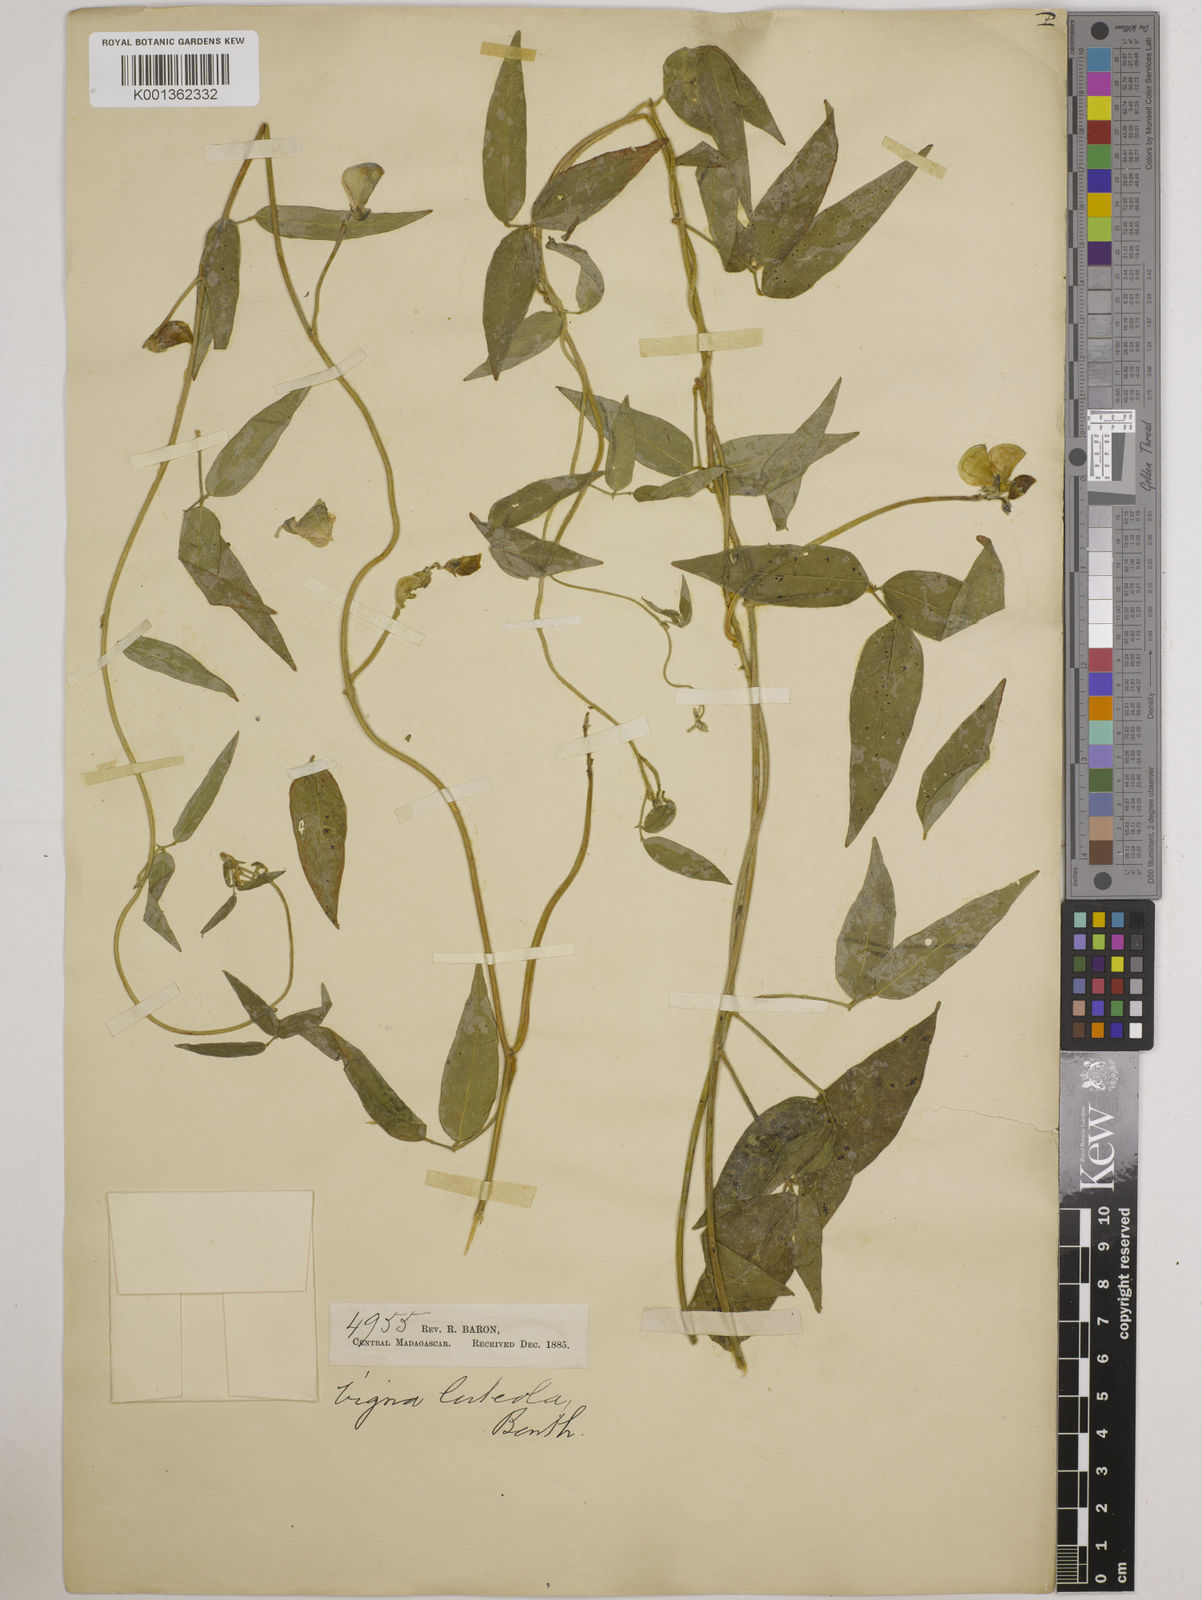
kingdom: Plantae
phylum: Tracheophyta
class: Magnoliopsida
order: Fabales
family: Fabaceae
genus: Vigna
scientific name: Vigna luteola
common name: Hairypod cowpea
